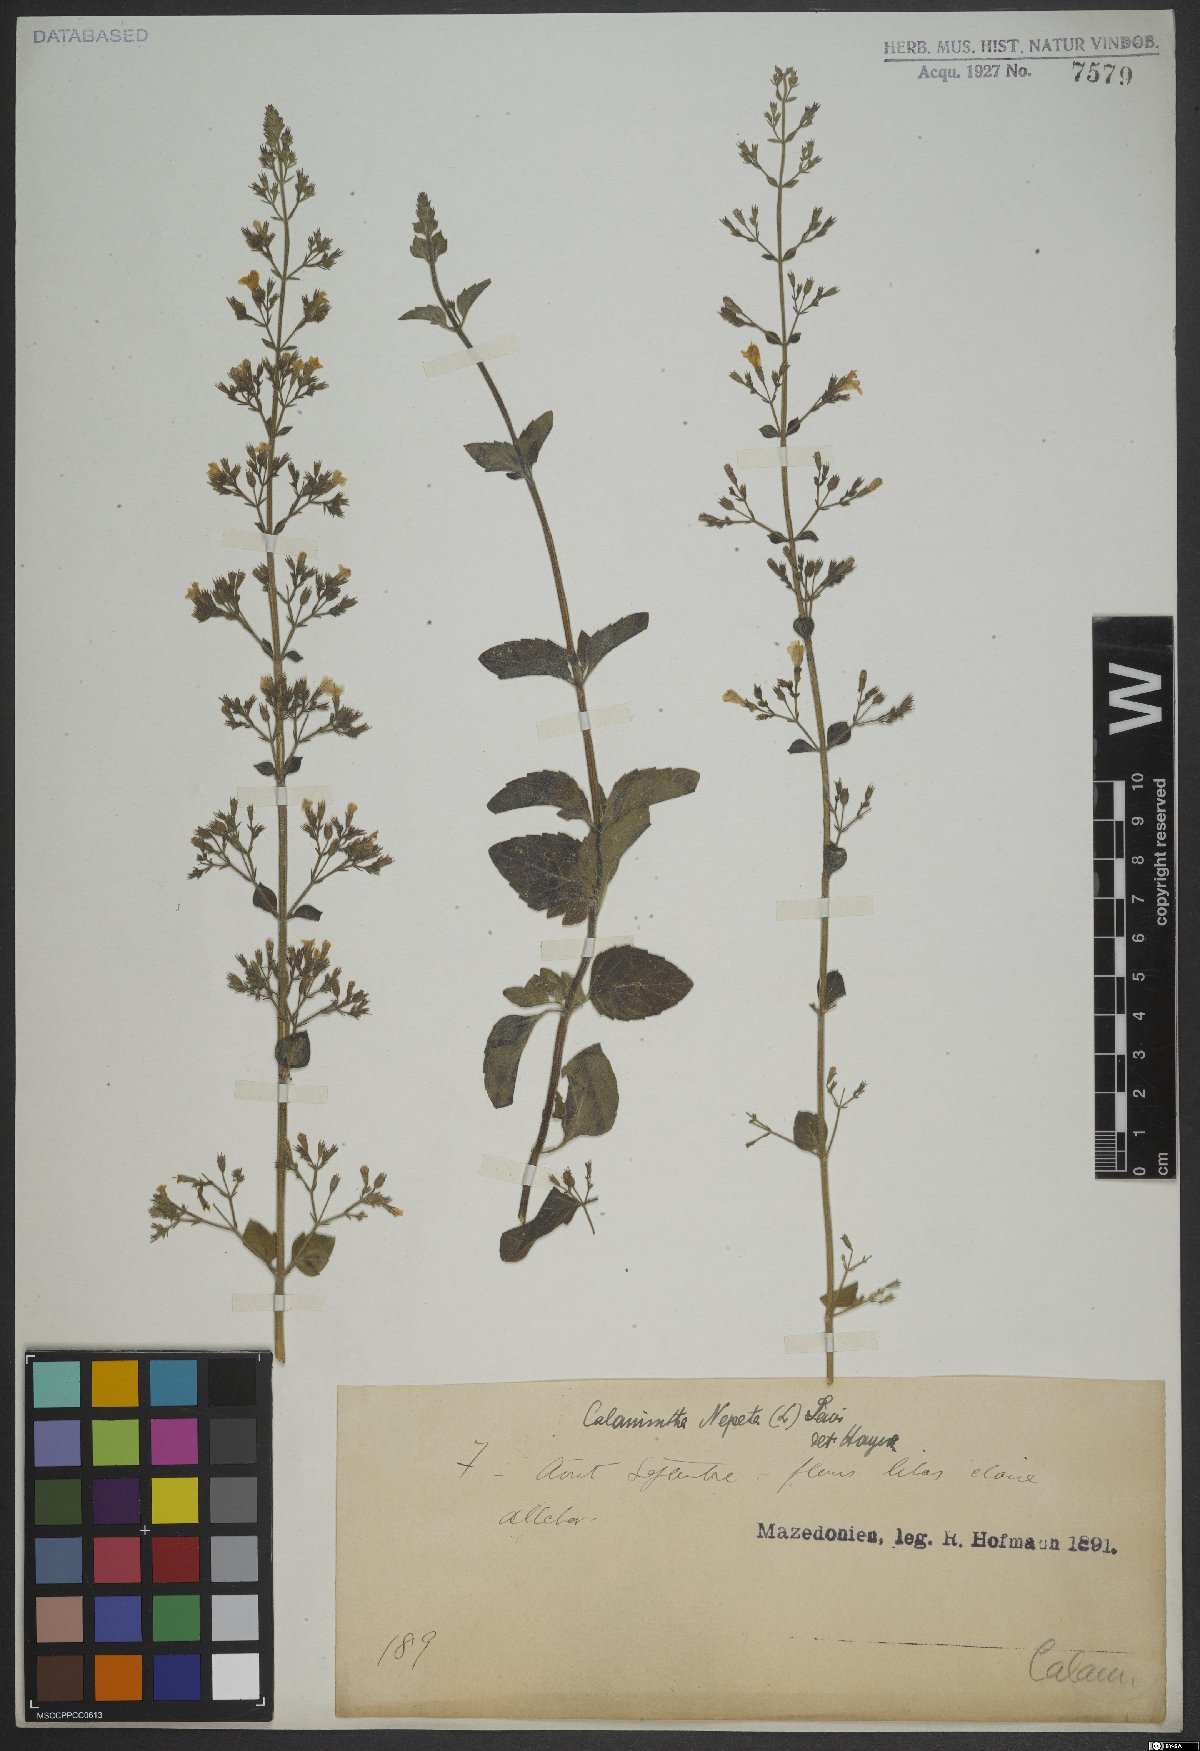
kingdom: Plantae
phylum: Tracheophyta
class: Magnoliopsida
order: Lamiales
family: Lamiaceae
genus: Clinopodium
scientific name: Clinopodium nepeta
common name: Lesser calamint
